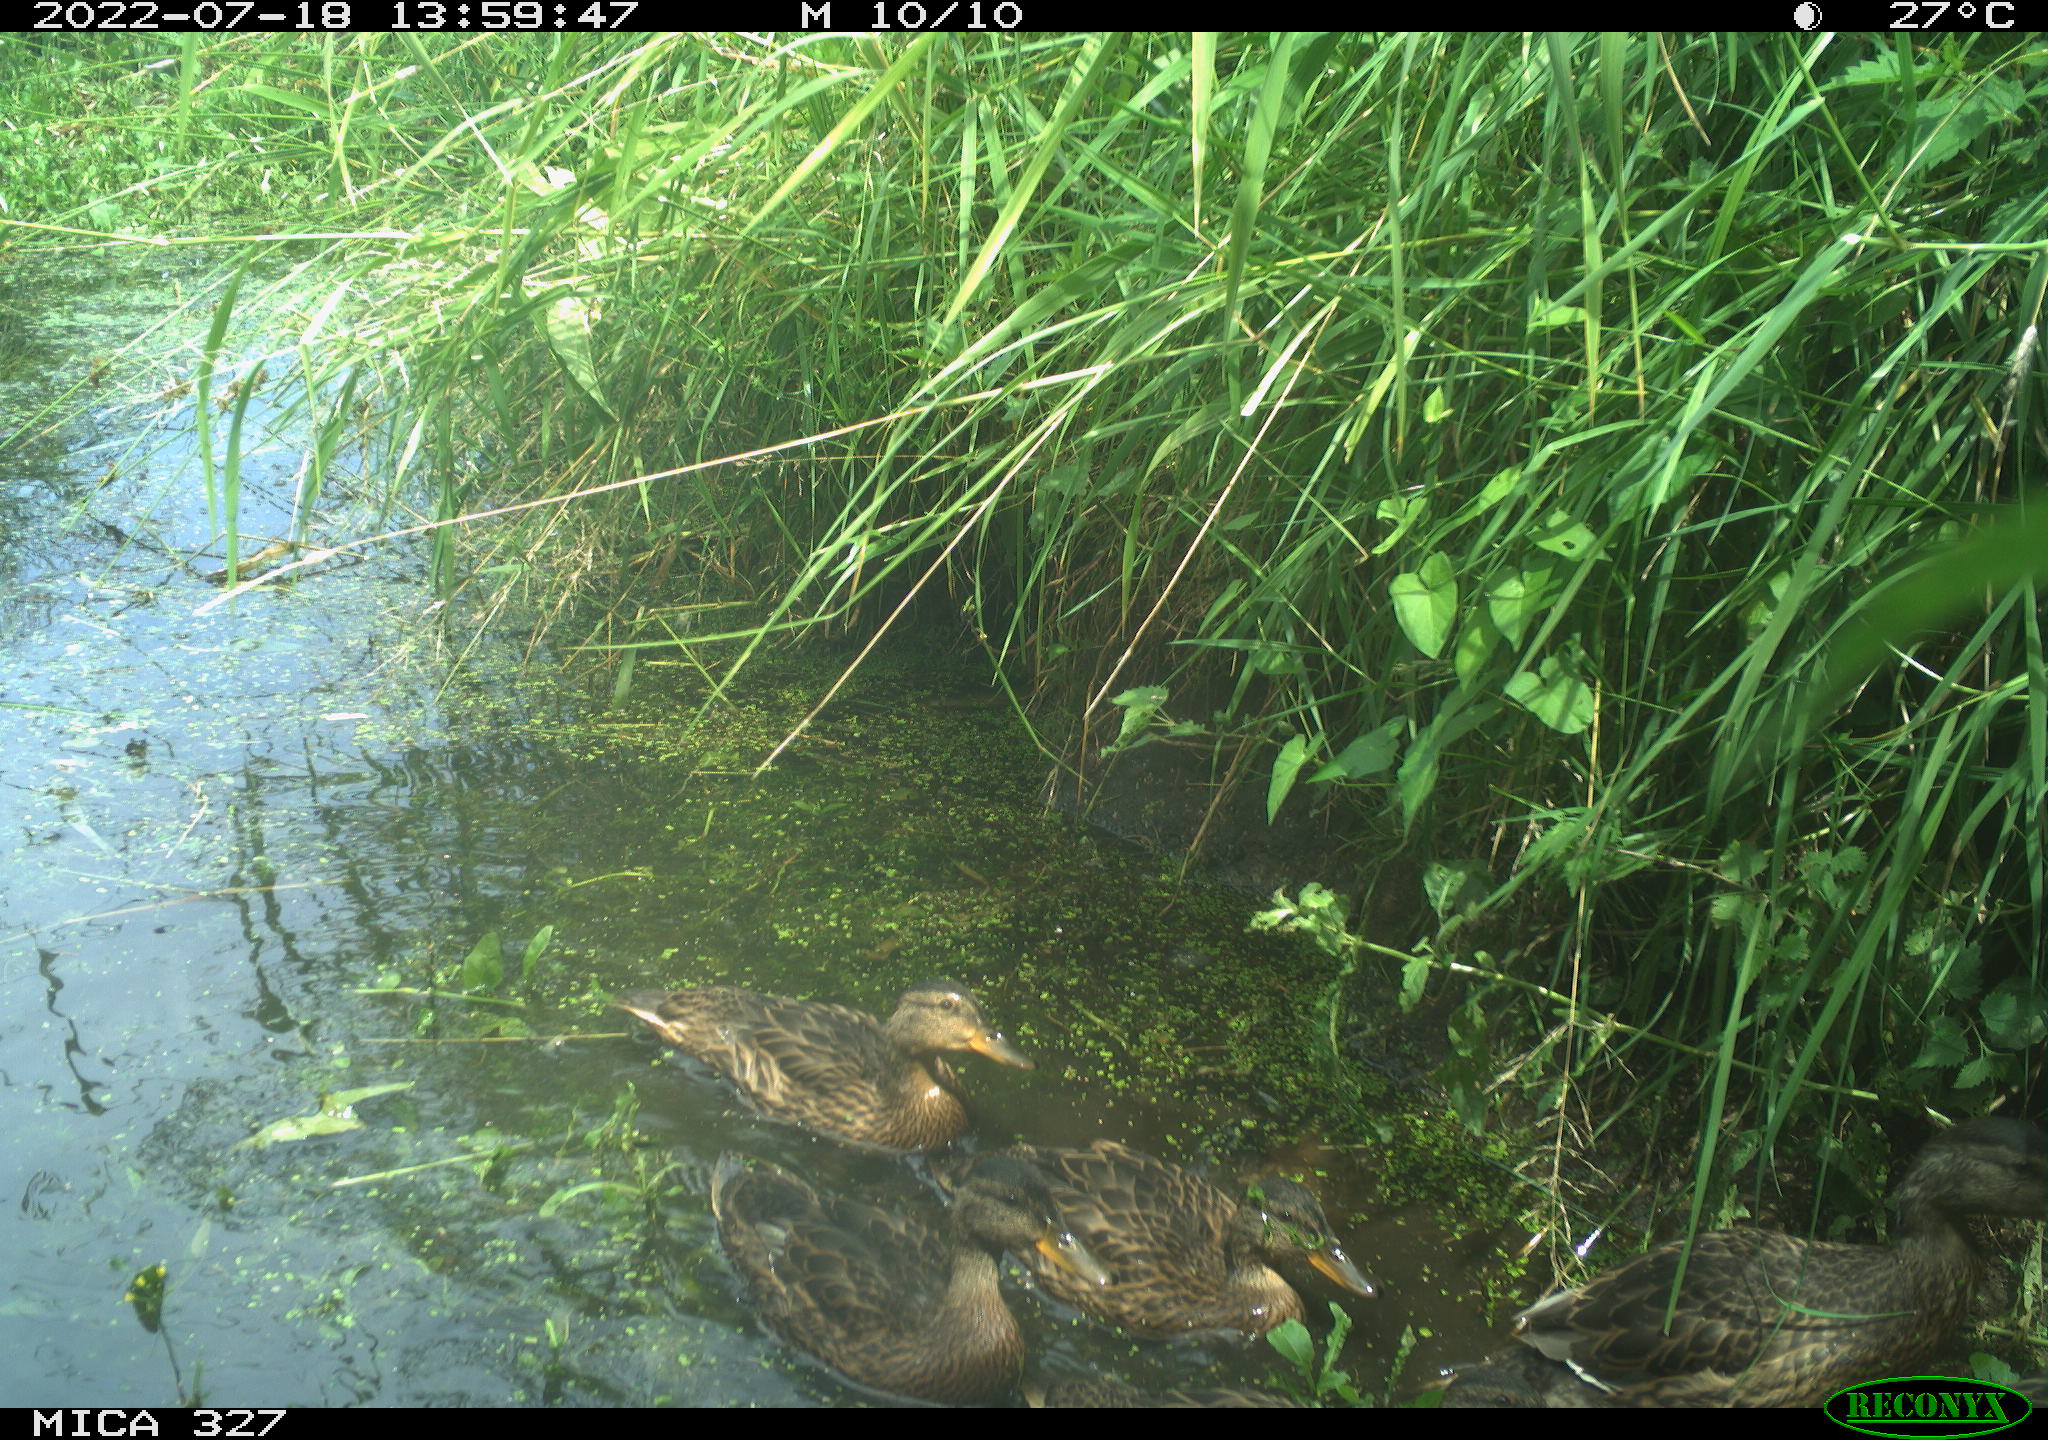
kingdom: Animalia
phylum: Chordata
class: Aves
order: Anseriformes
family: Anatidae
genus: Anas
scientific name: Anas
